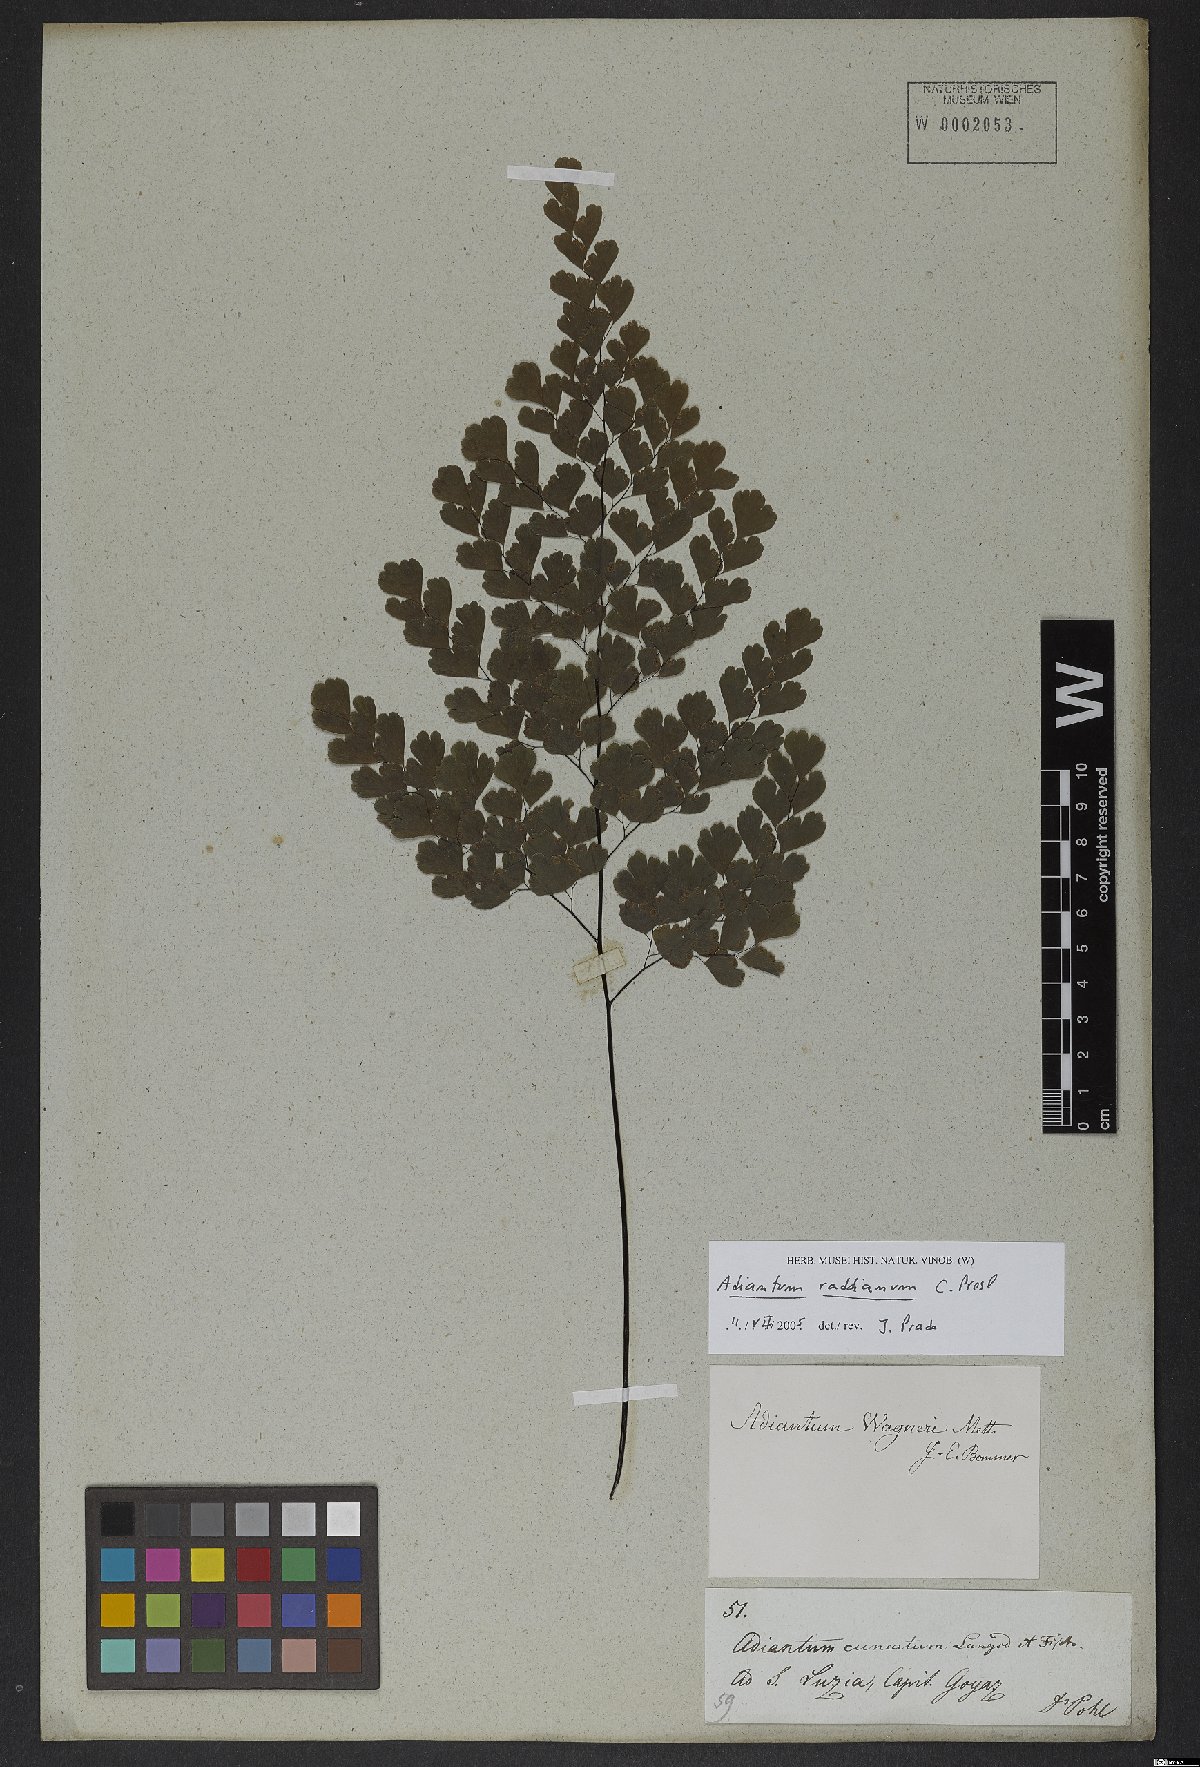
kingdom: Plantae
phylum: Tracheophyta
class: Polypodiopsida
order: Polypodiales
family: Pteridaceae
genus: Adiantum
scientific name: Adiantum raddianum
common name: Delta maidenhair fern
